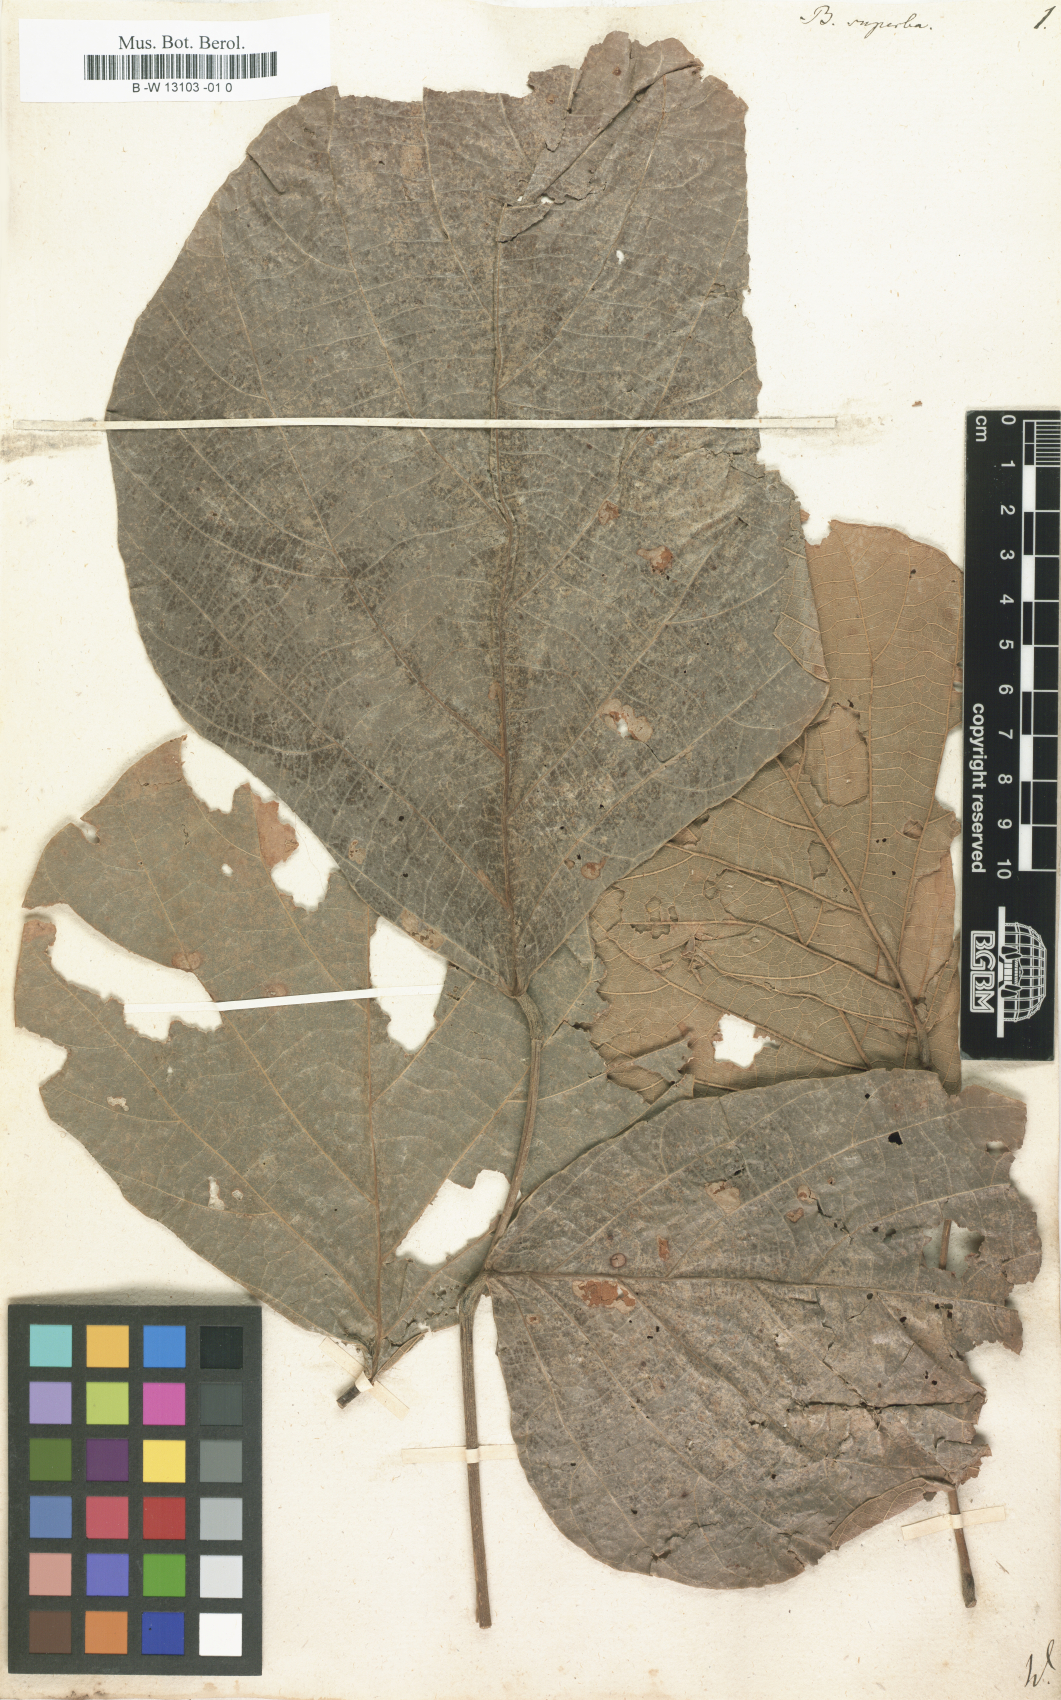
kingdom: Plantae
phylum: Tracheophyta
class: Magnoliopsida
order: Fabales
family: Fabaceae
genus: Butea
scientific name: Butea superba
